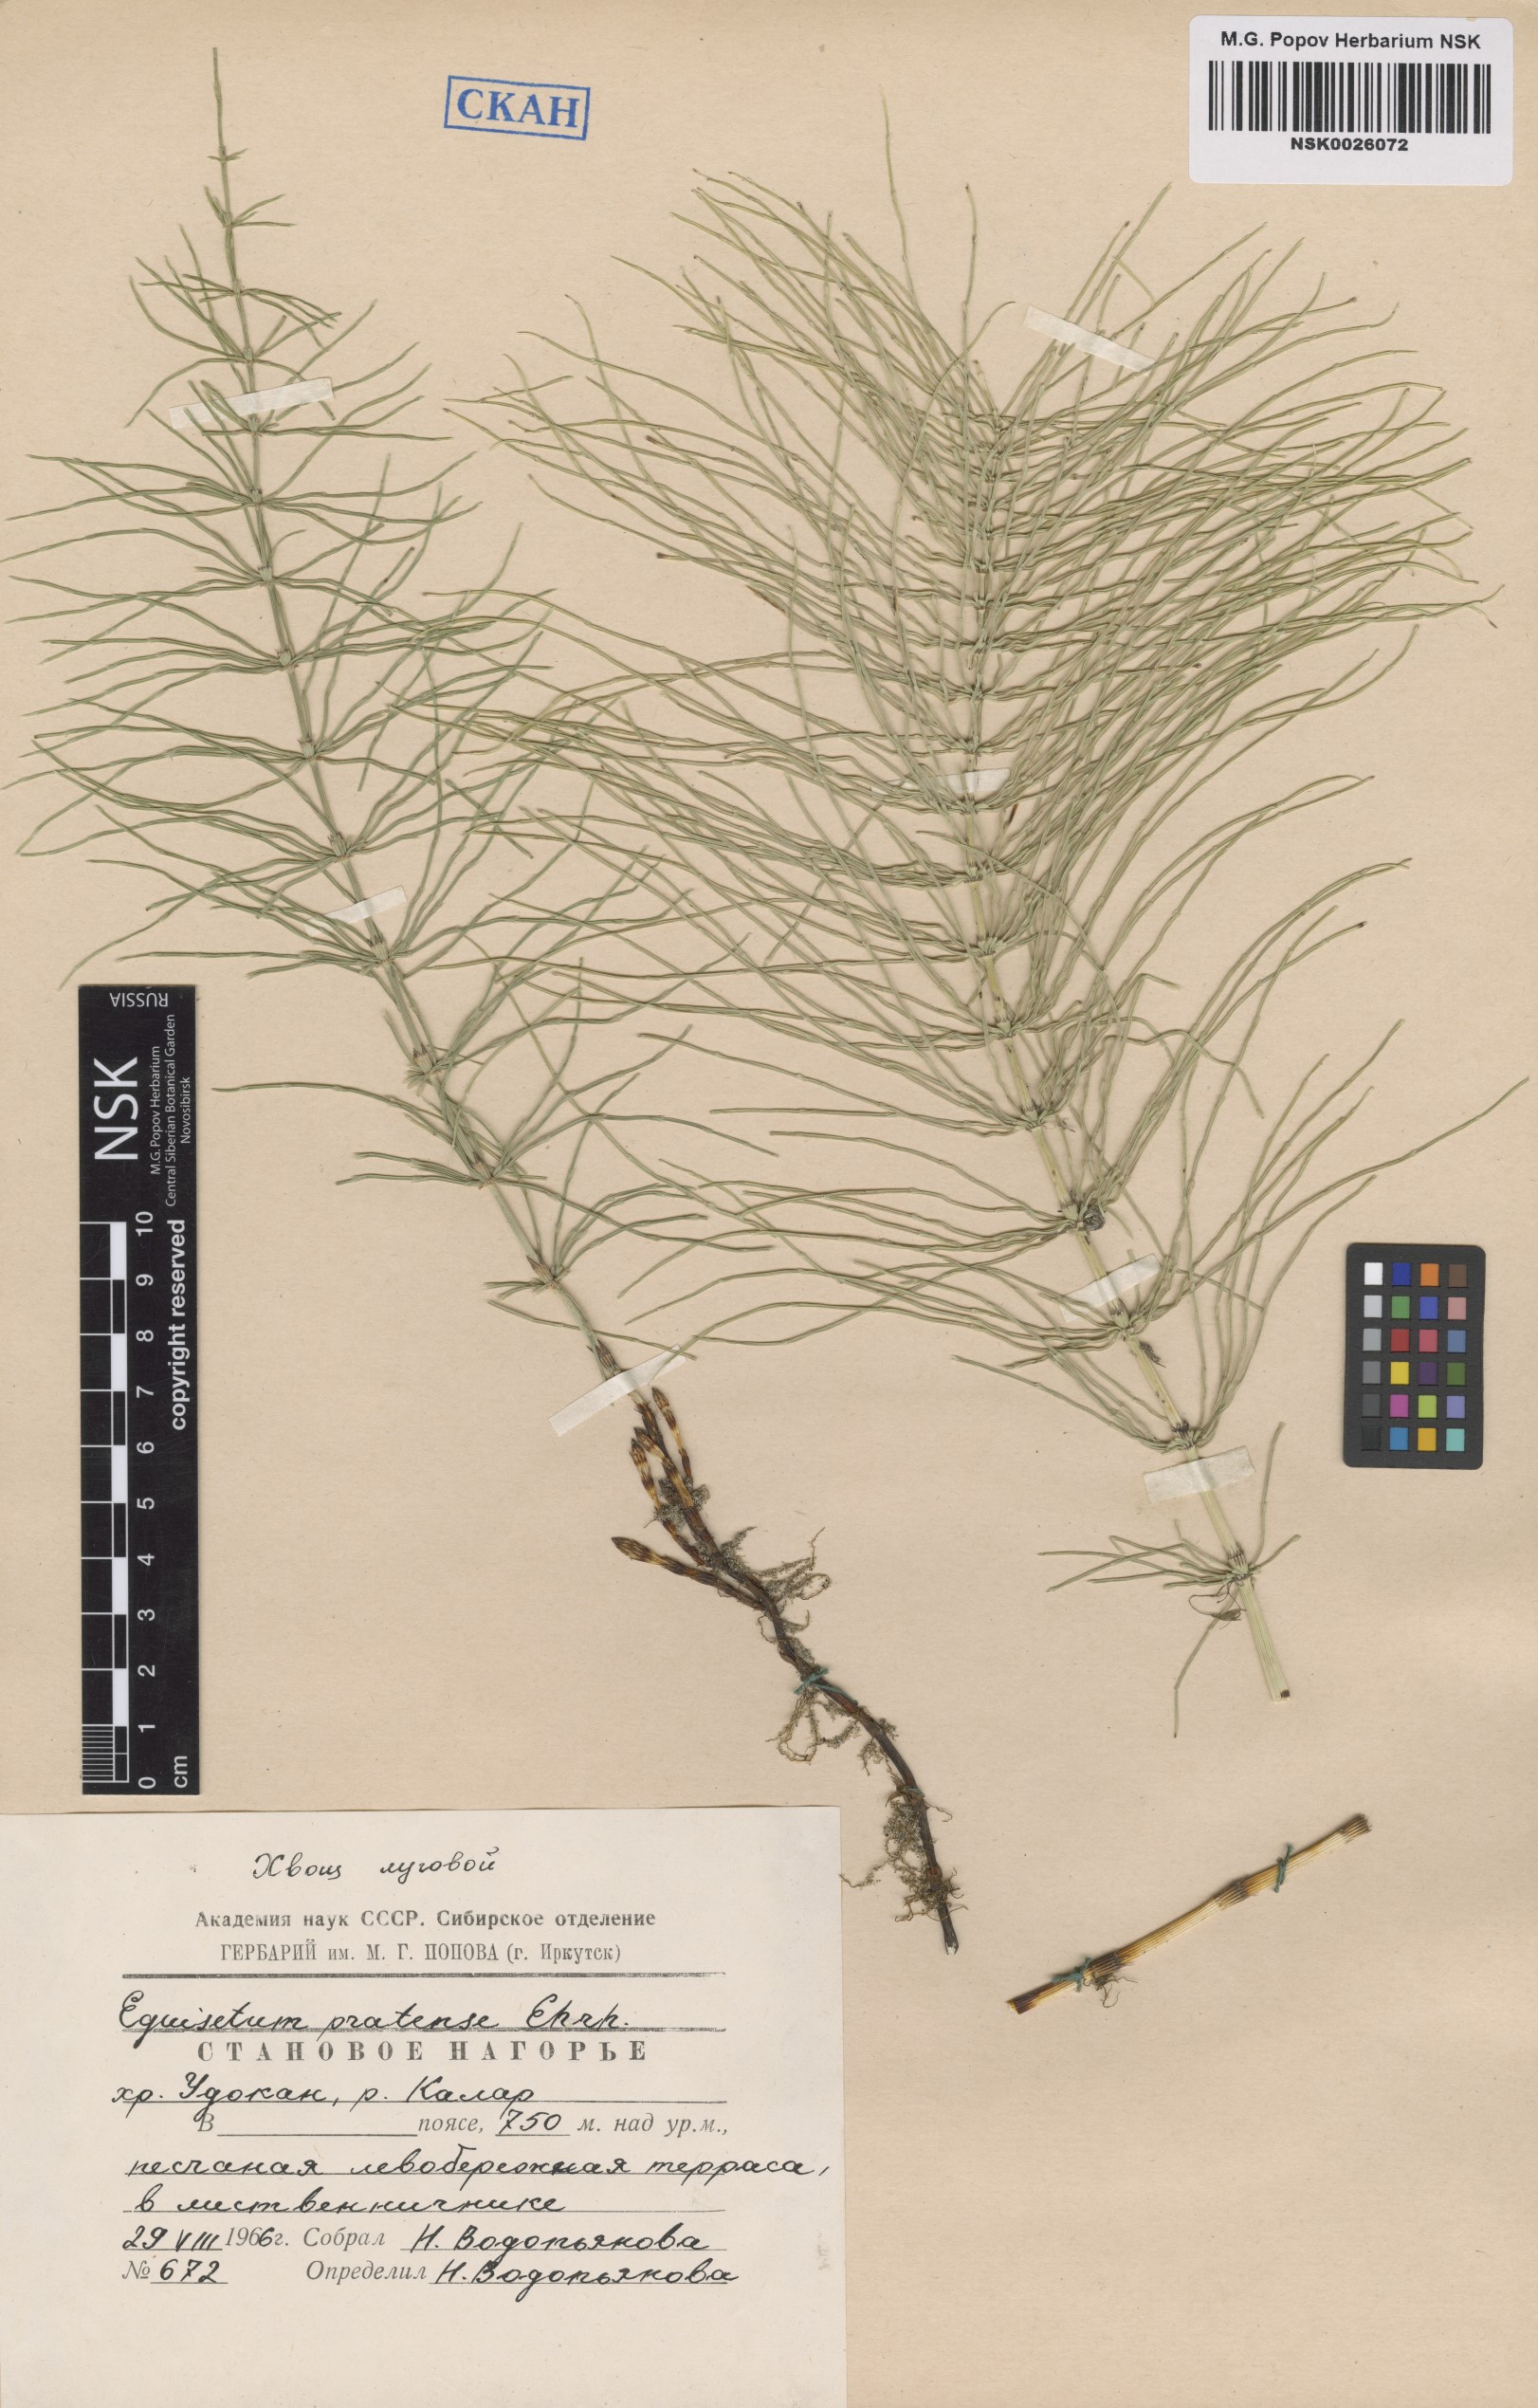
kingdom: Plantae
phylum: Tracheophyta
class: Polypodiopsida
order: Equisetales
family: Equisetaceae
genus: Equisetum
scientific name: Equisetum pratense
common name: Meadow horsetail
